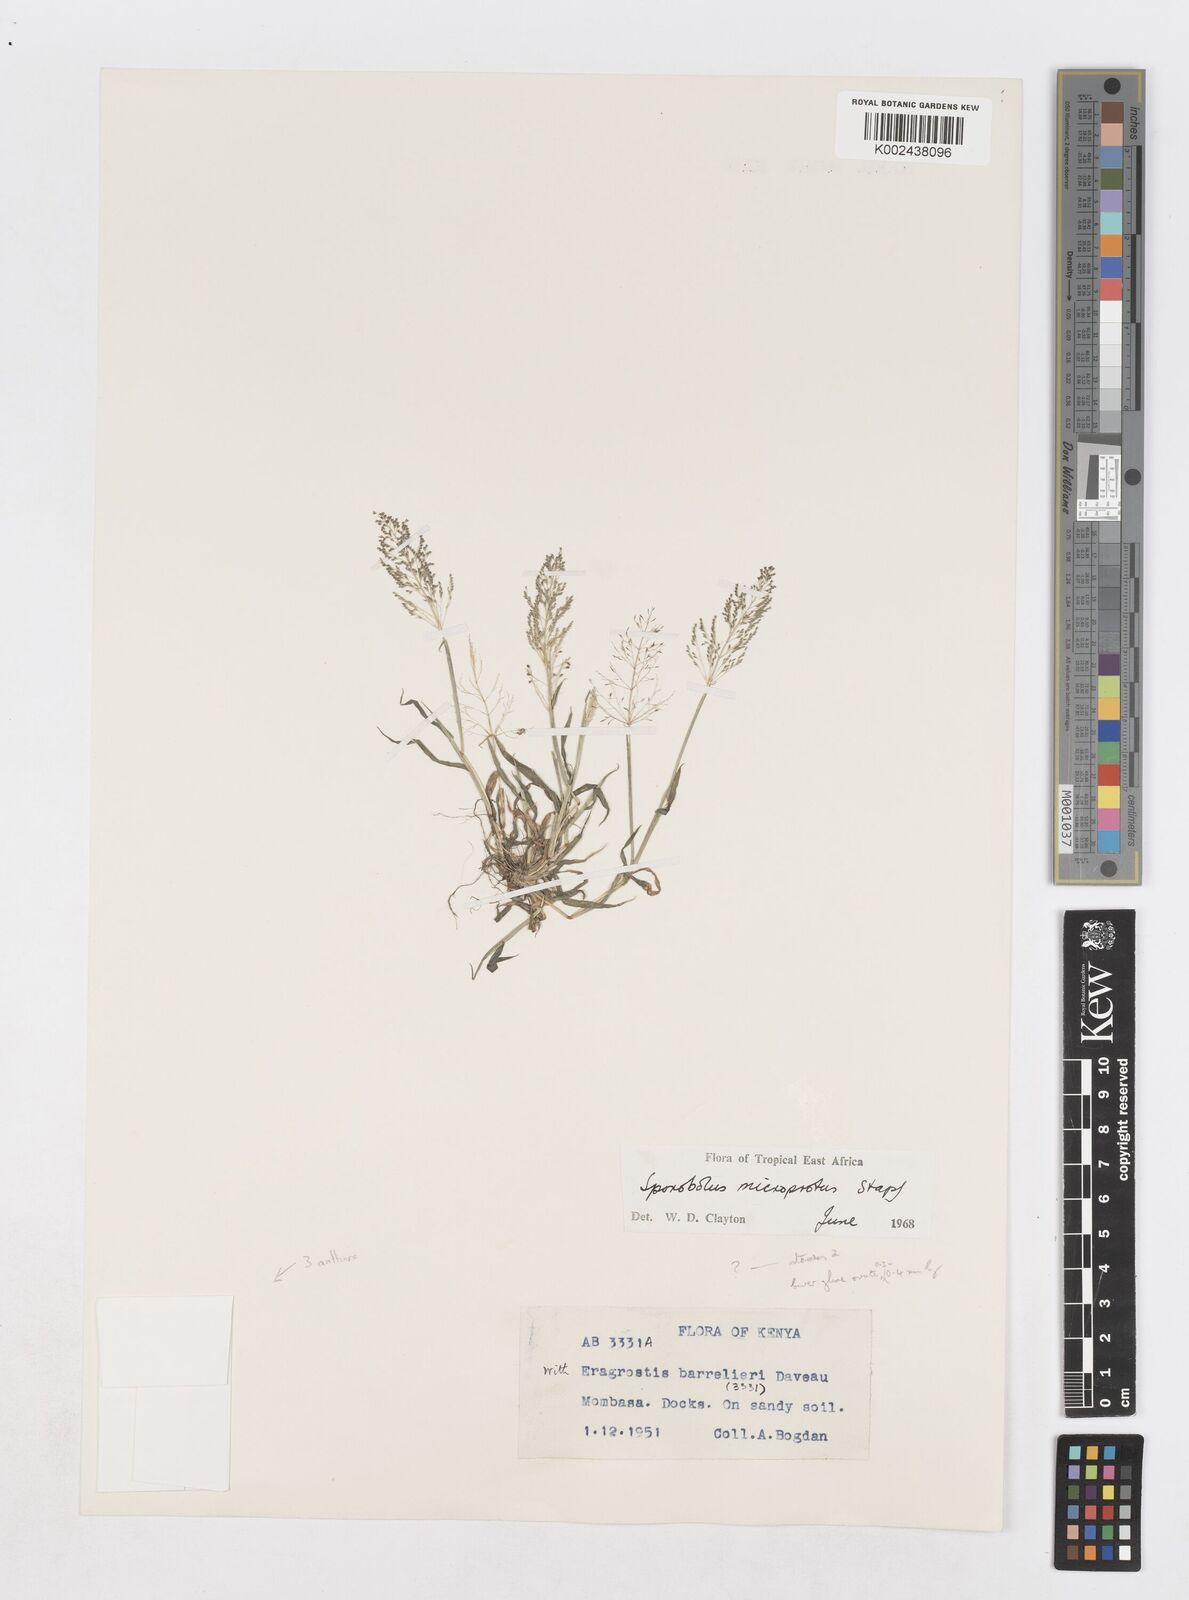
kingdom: Plantae
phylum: Tracheophyta
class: Liliopsida
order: Poales
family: Poaceae
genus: Sporobolus
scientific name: Sporobolus coromandelianus
